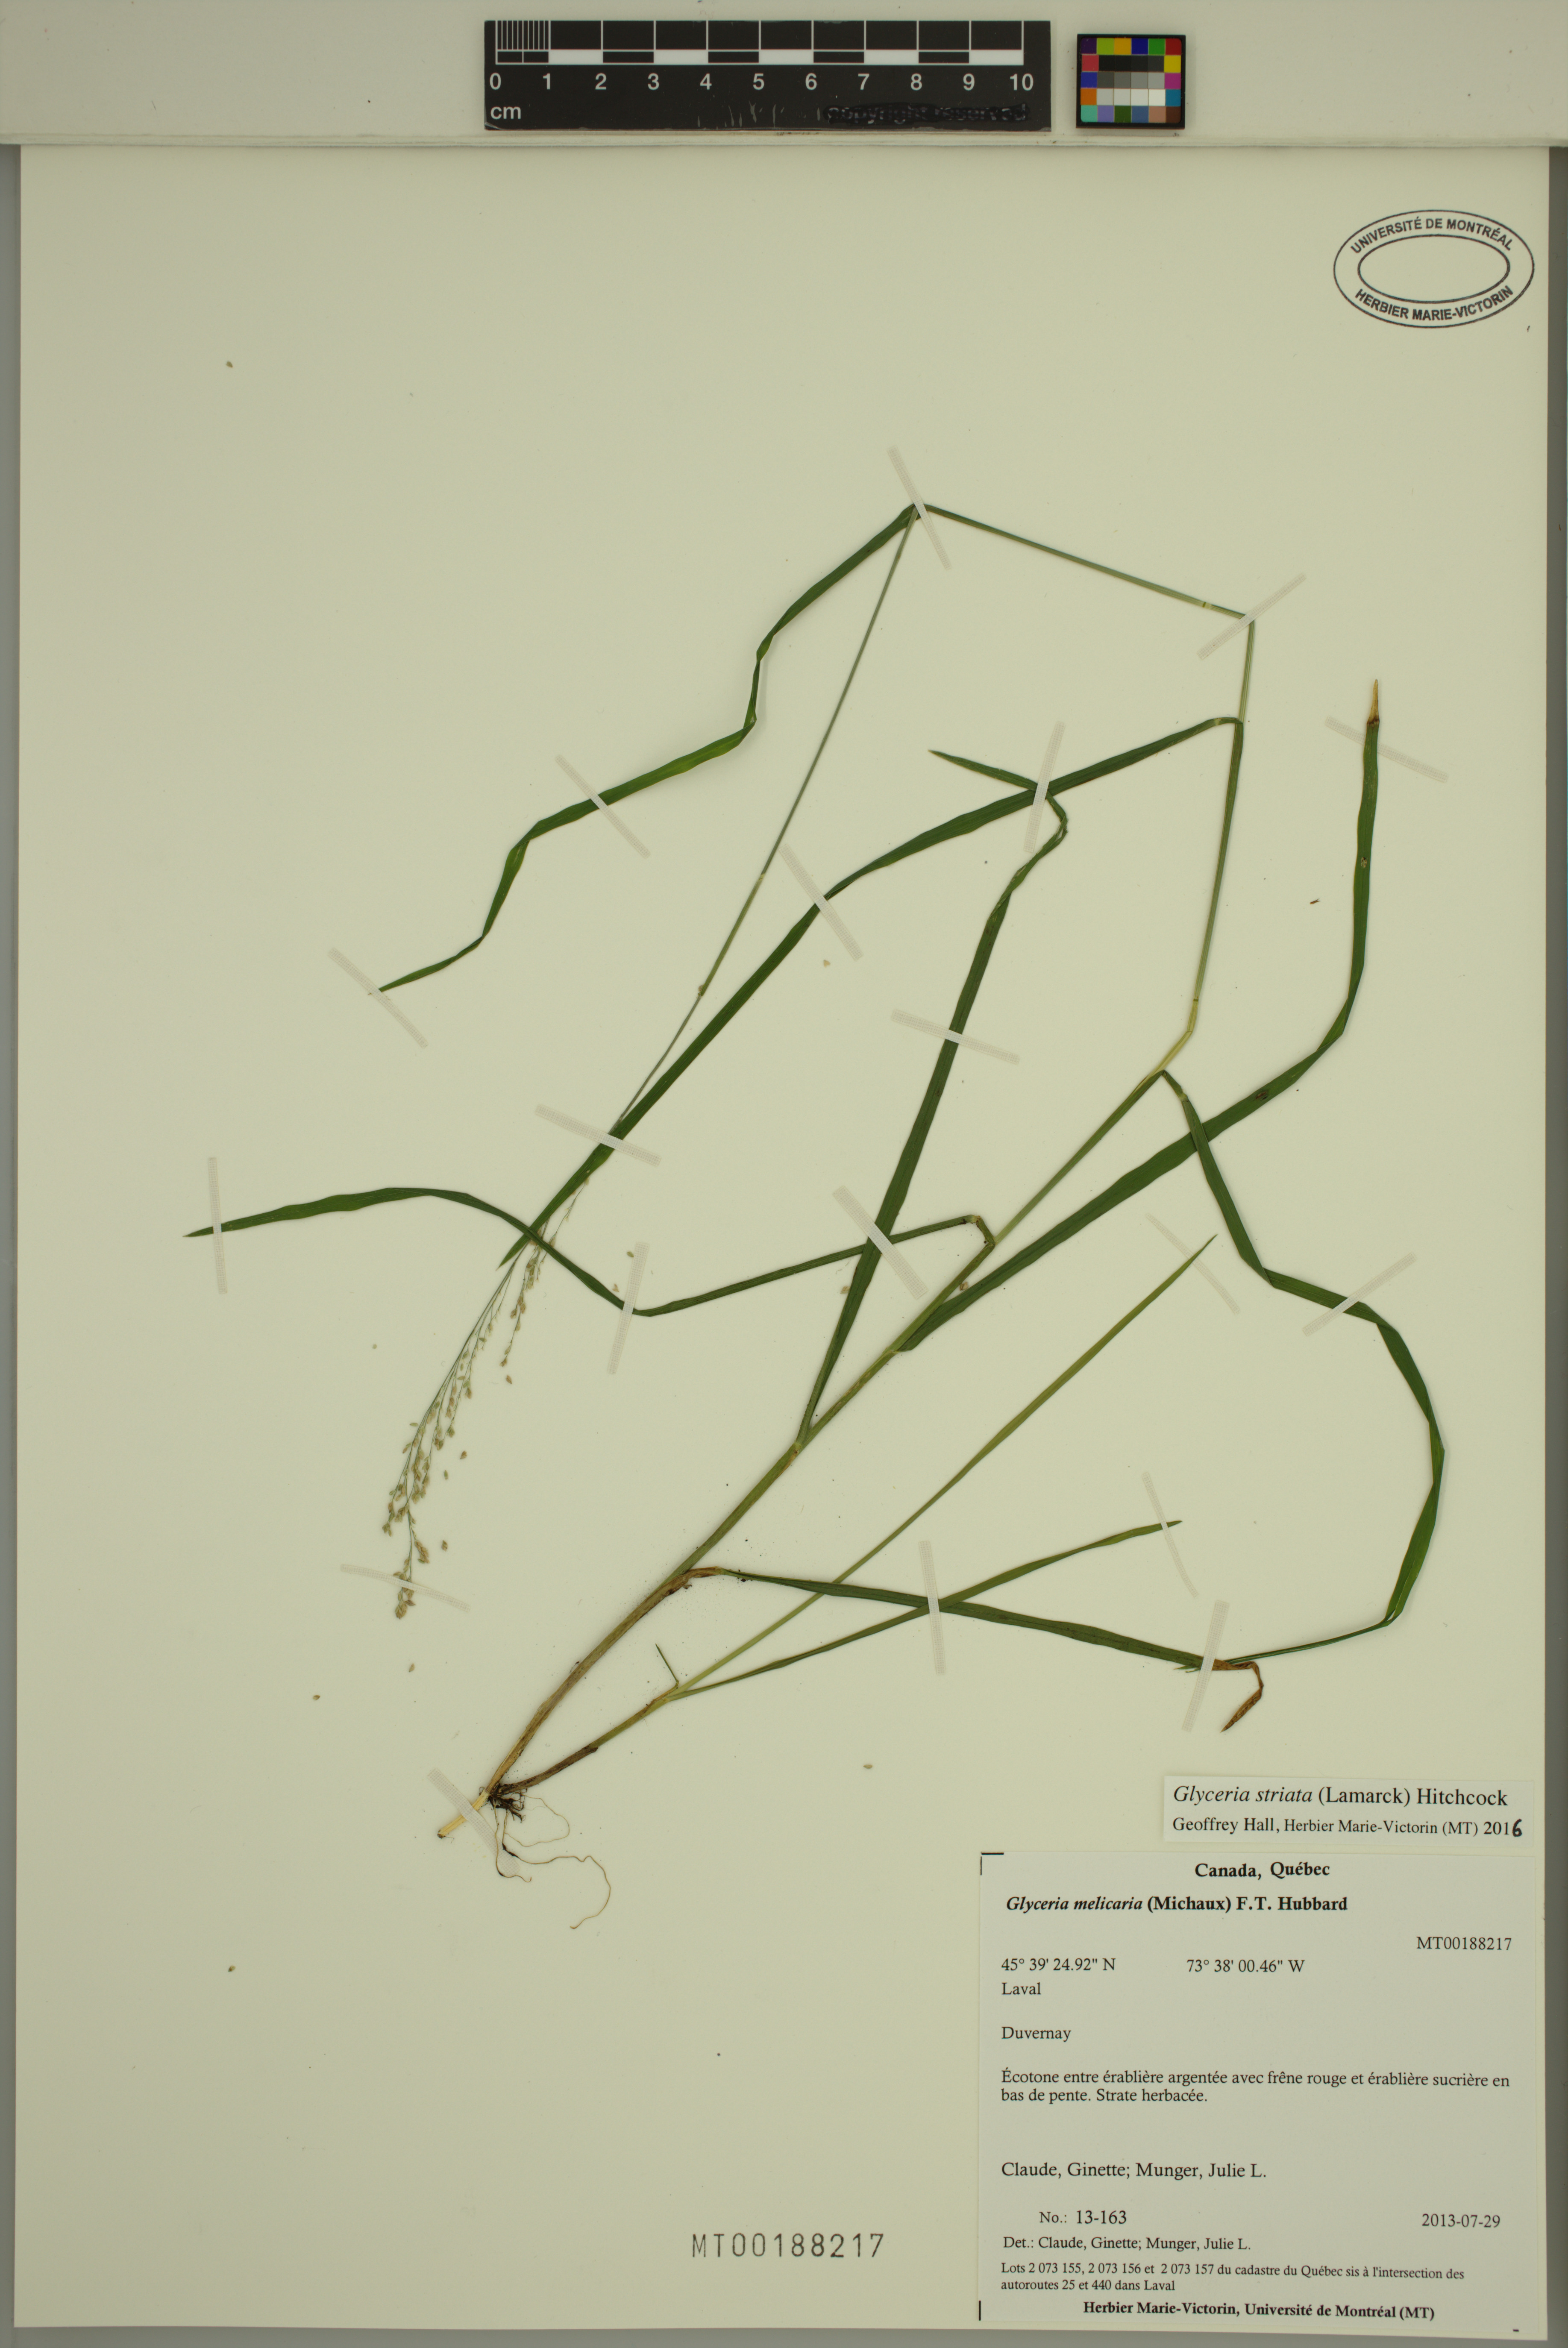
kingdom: Plantae
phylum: Tracheophyta
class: Liliopsida
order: Poales
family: Poaceae
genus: Glyceria
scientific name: Glyceria striata
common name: Fowl manna grass
